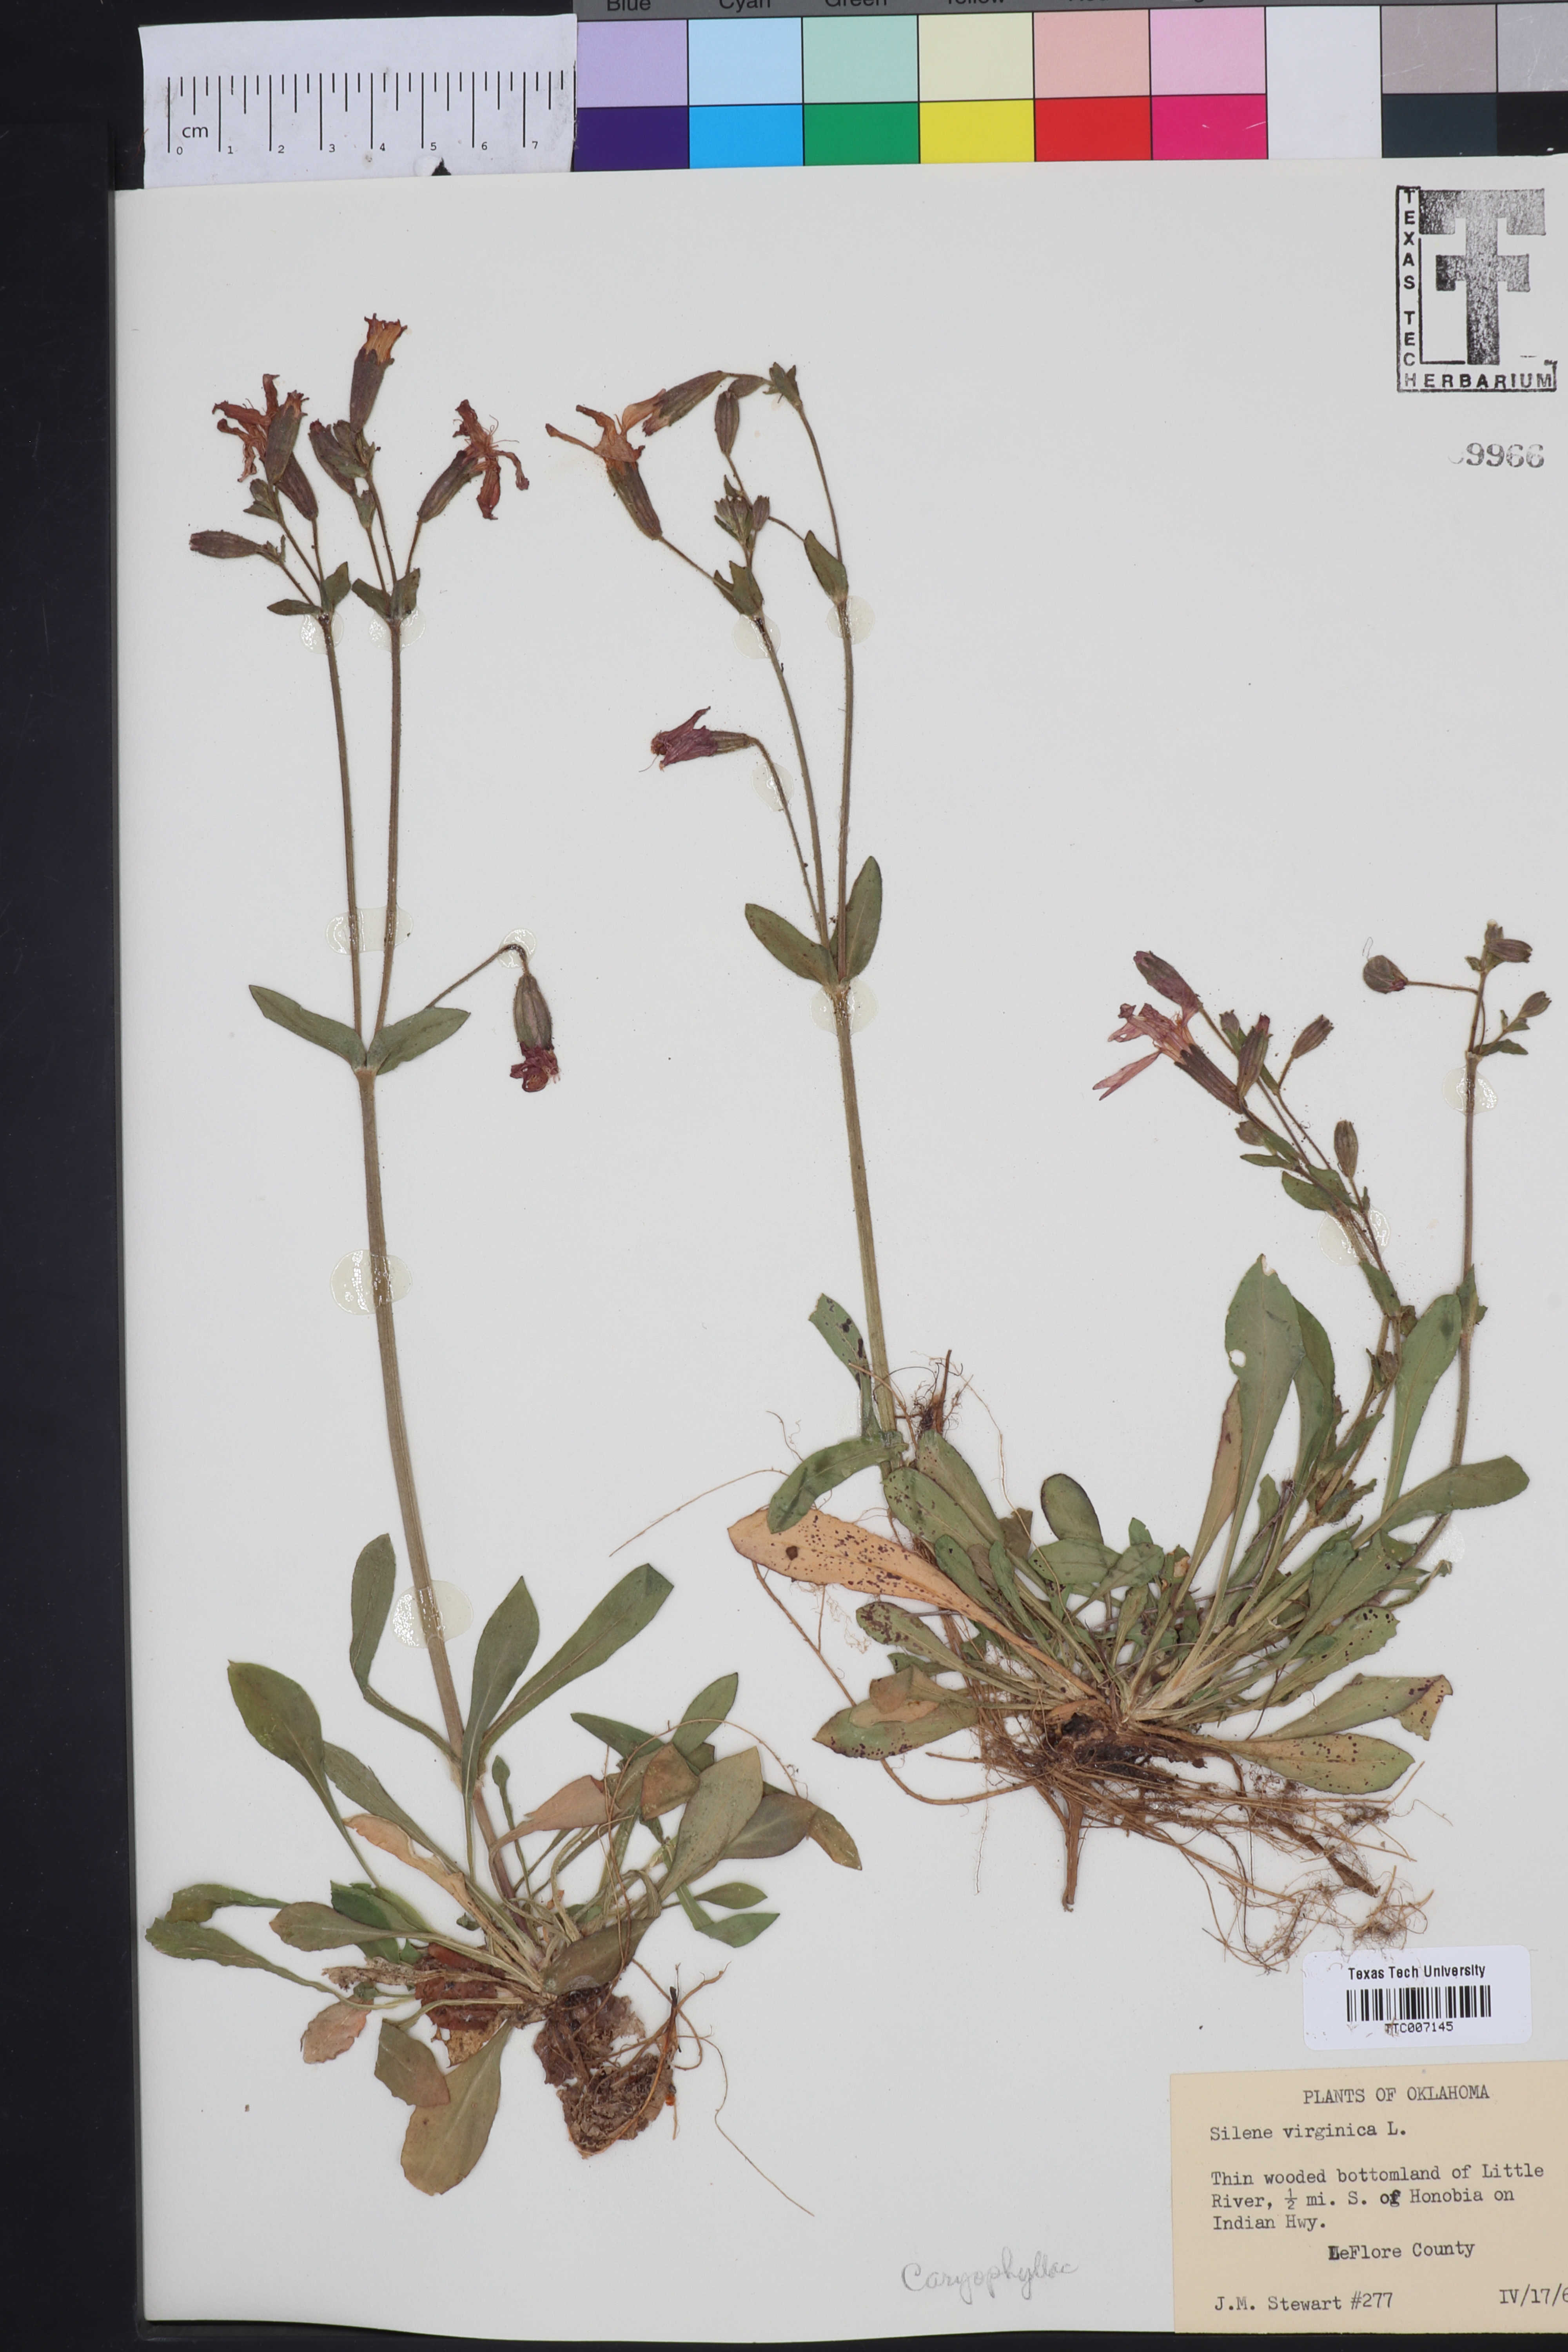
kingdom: Plantae
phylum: Tracheophyta
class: Magnoliopsida
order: Caryophyllales
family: Caryophyllaceae
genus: Silene
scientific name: Silene virginica
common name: Fire-pink
